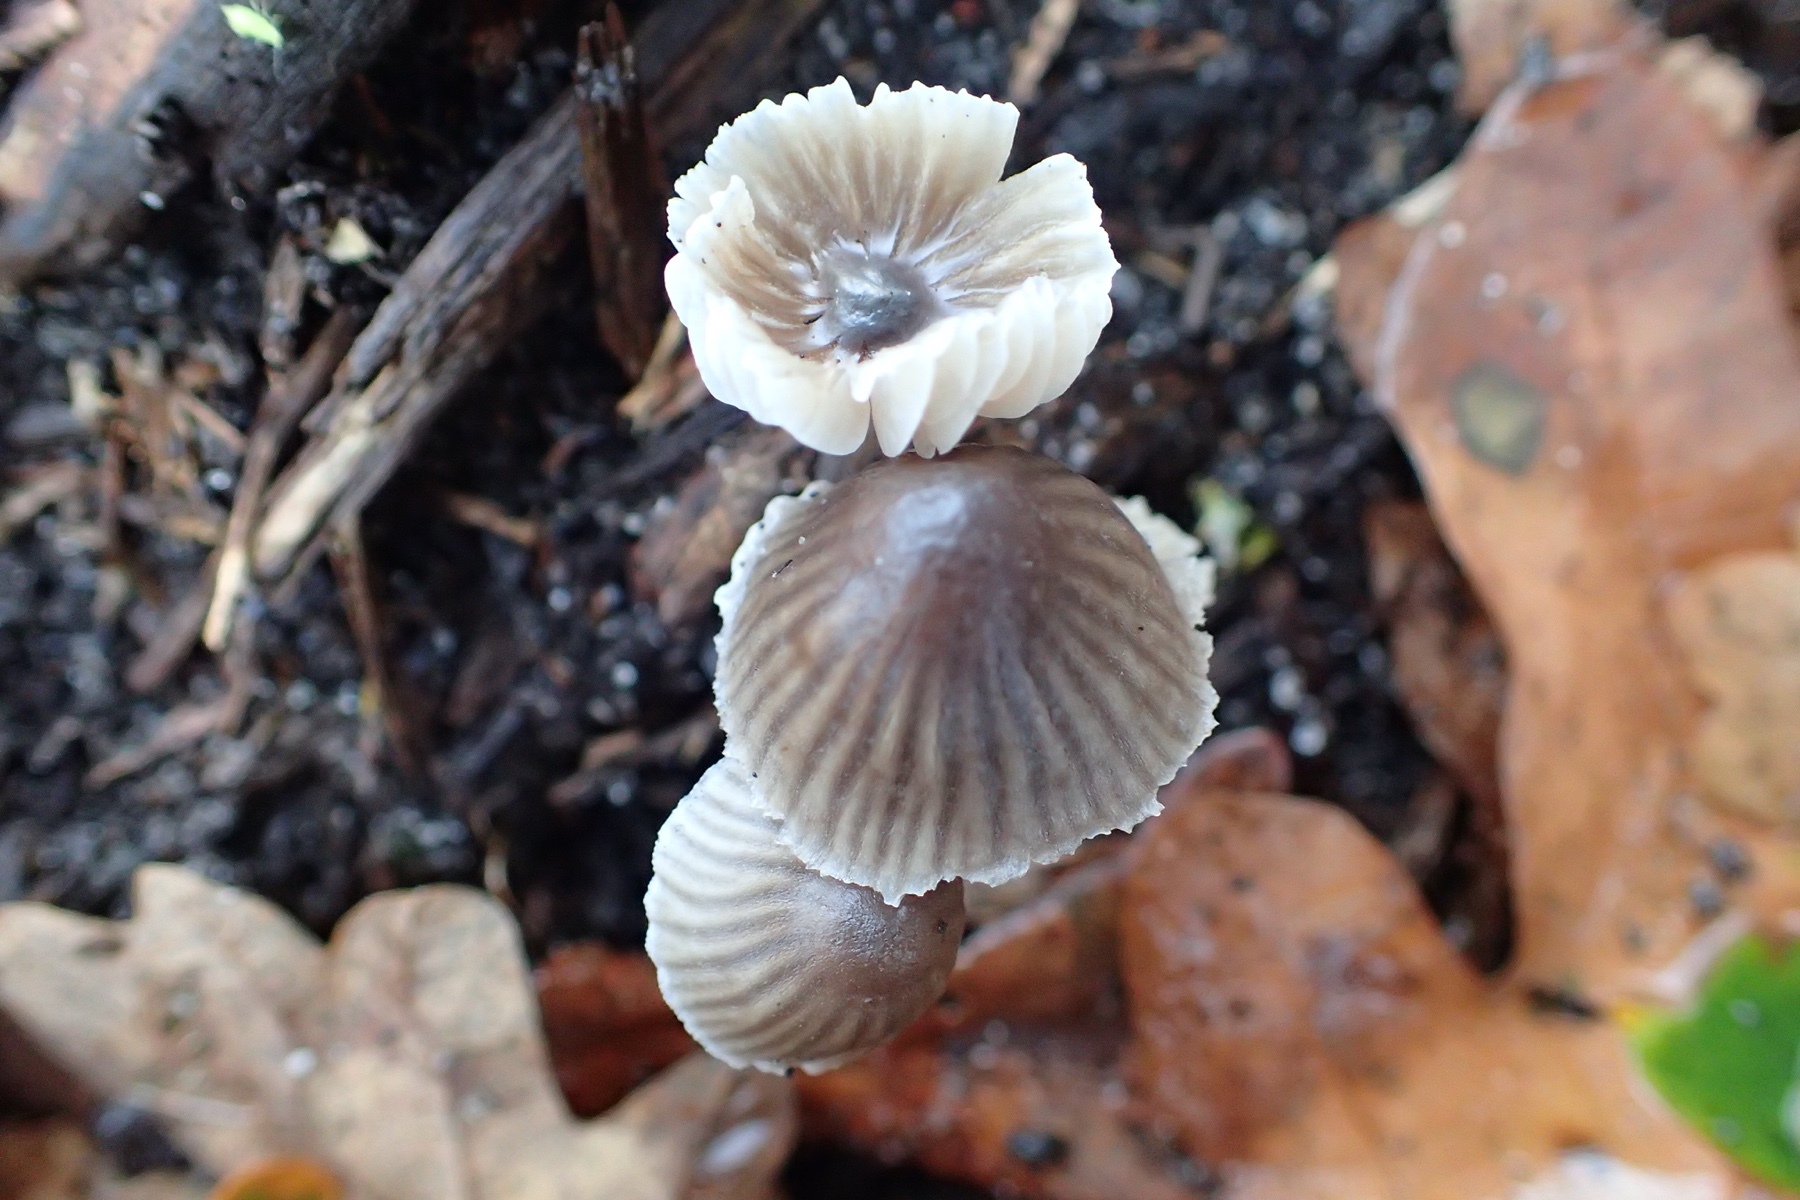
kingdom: Fungi
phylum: Basidiomycota
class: Agaricomycetes
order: Agaricales
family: Mycenaceae
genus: Mycena
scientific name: Mycena
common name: huesvamp
